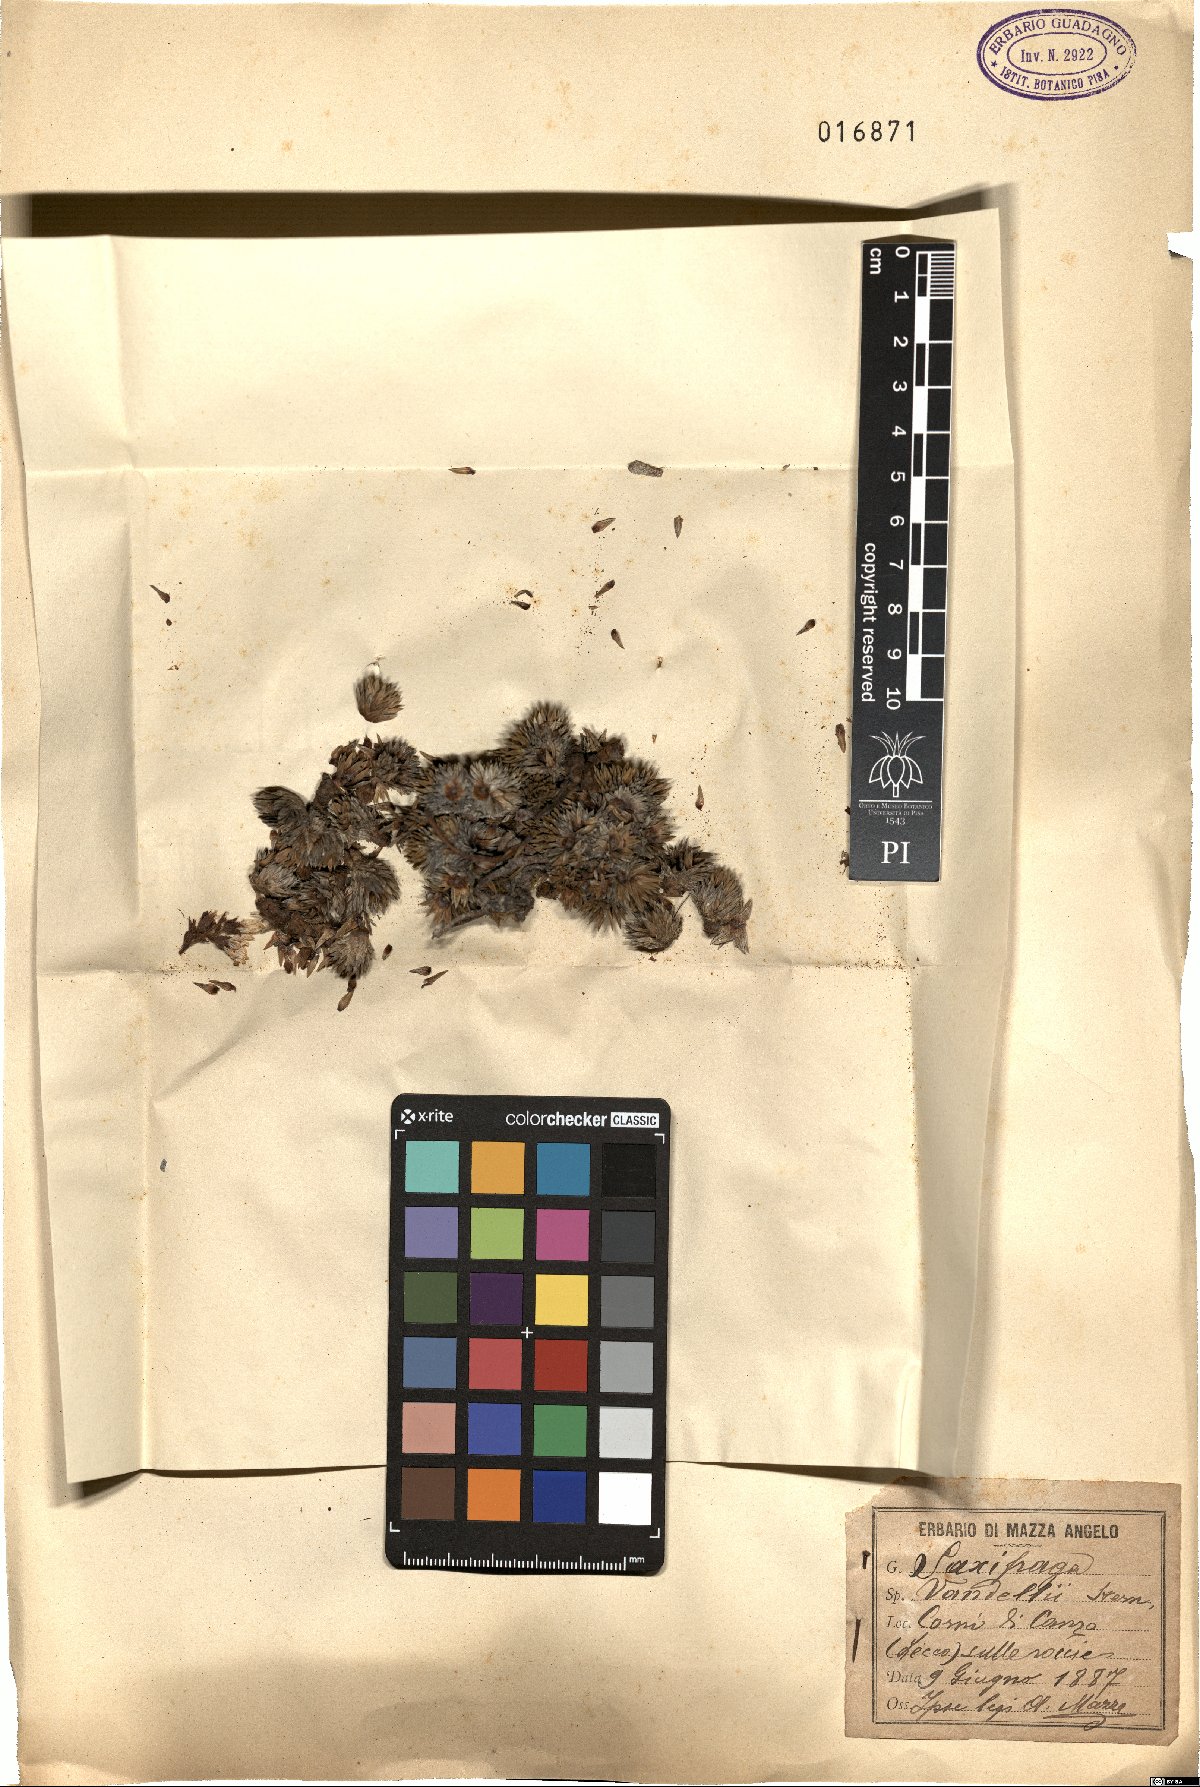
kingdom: Plantae
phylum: Tracheophyta
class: Magnoliopsida
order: Saxifragales
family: Saxifragaceae
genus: Saxifraga
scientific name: Saxifraga vandelii
